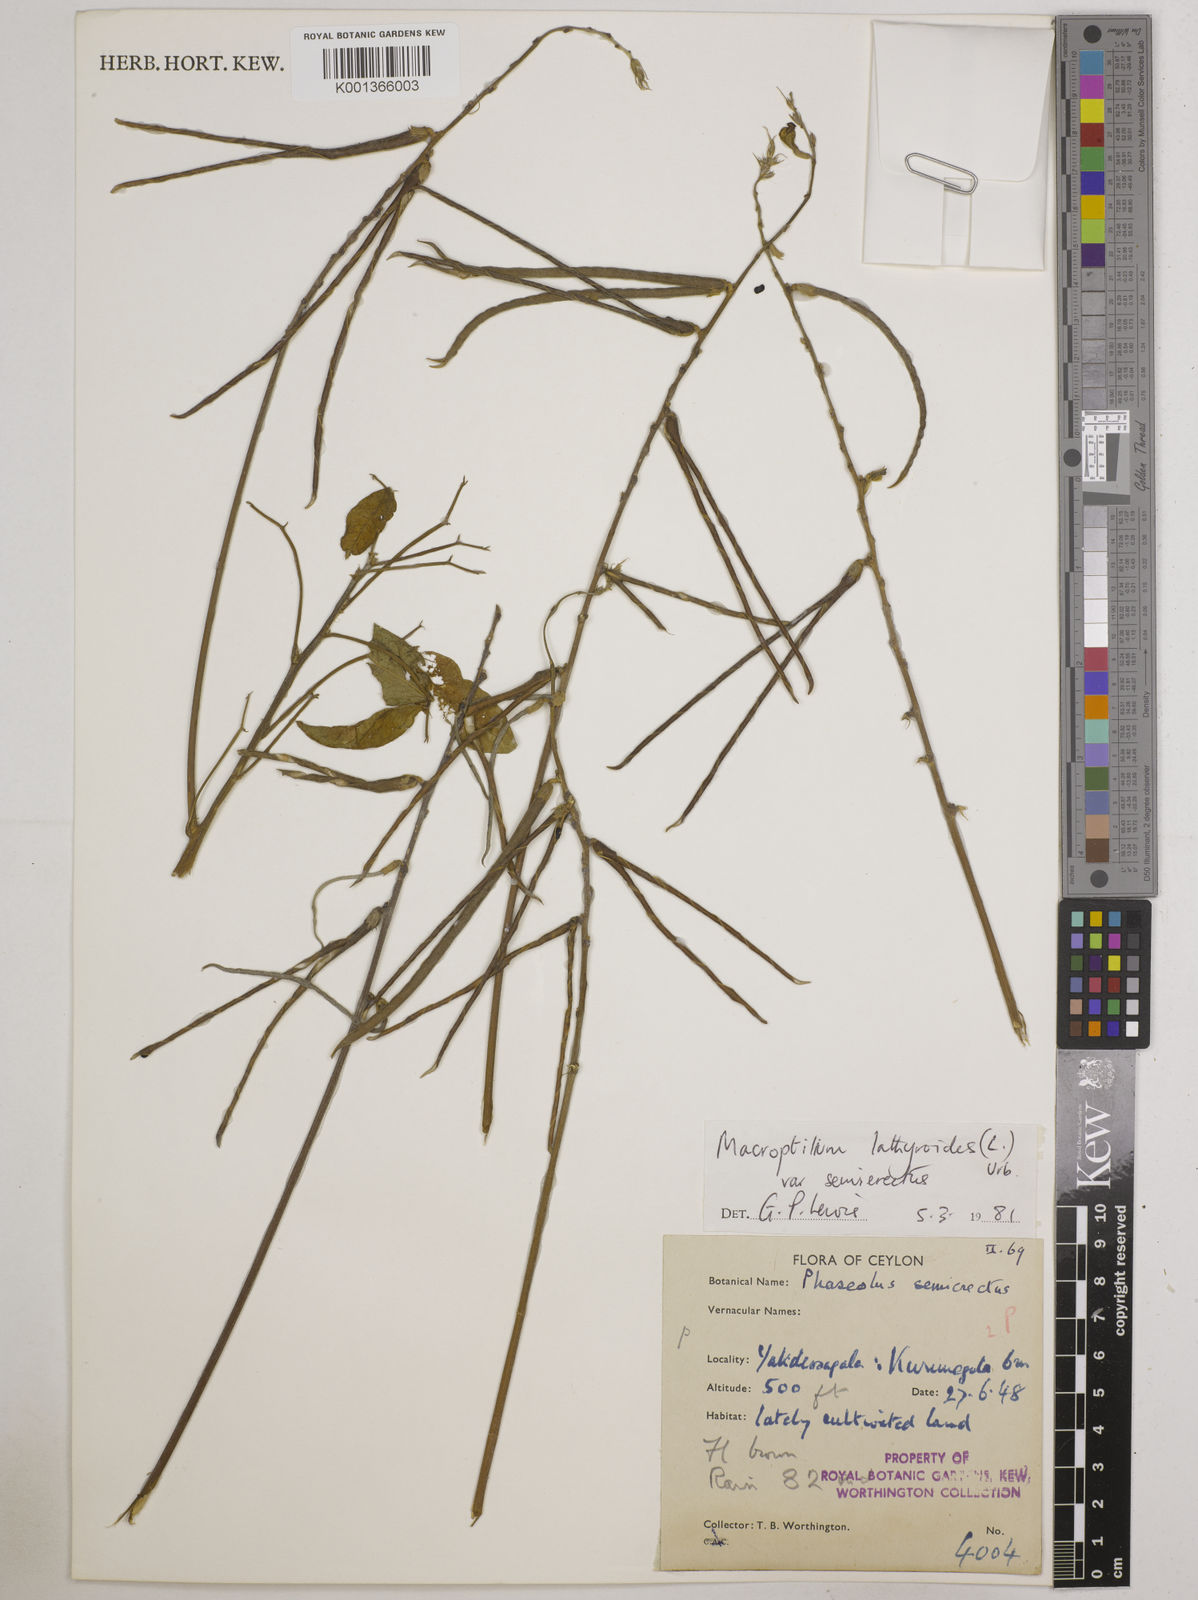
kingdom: Plantae
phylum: Tracheophyta
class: Magnoliopsida
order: Fabales
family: Fabaceae
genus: Macroptilium
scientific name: Macroptilium lathyroides
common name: Wild bushbean
